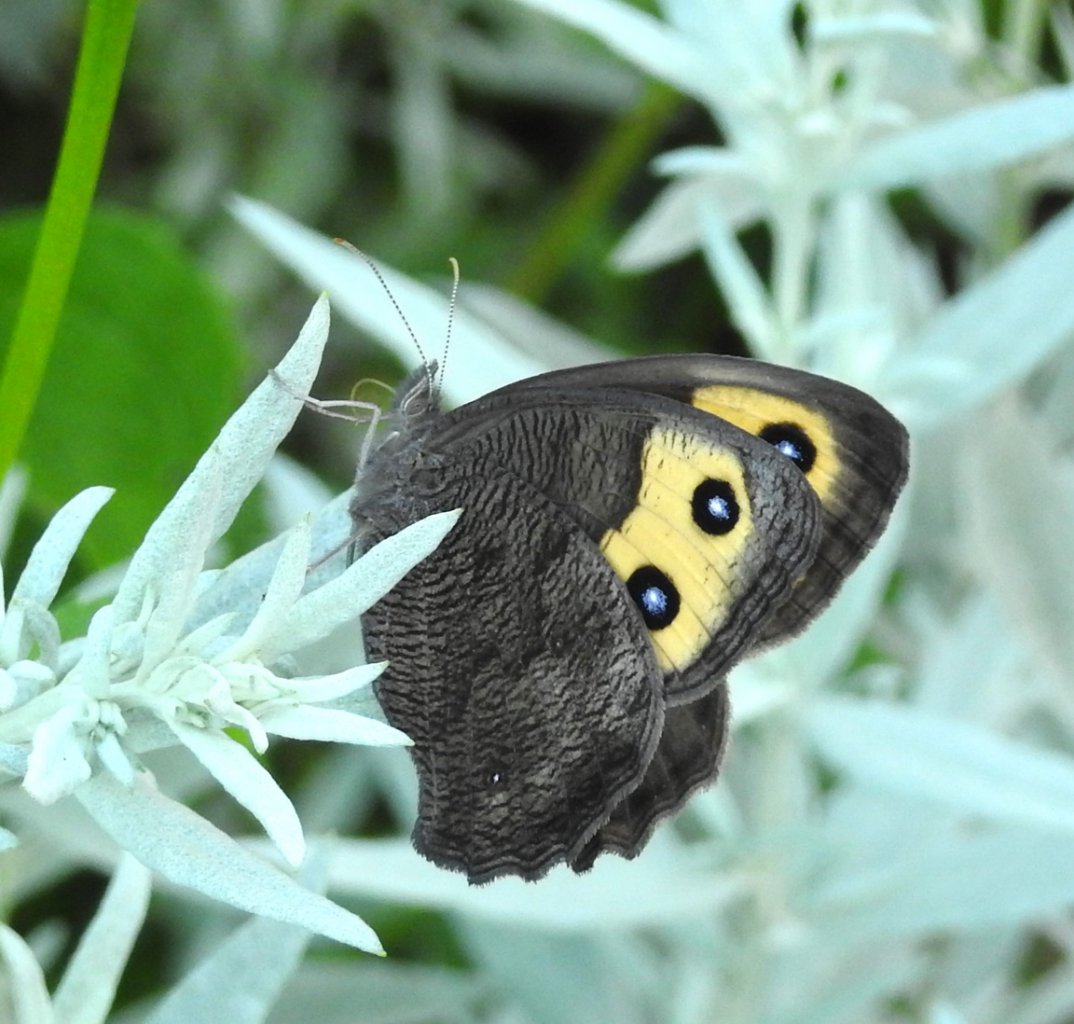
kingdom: Animalia
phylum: Arthropoda
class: Insecta
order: Lepidoptera
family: Nymphalidae
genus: Cercyonis
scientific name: Cercyonis pegala
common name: Common Wood-Nymph
